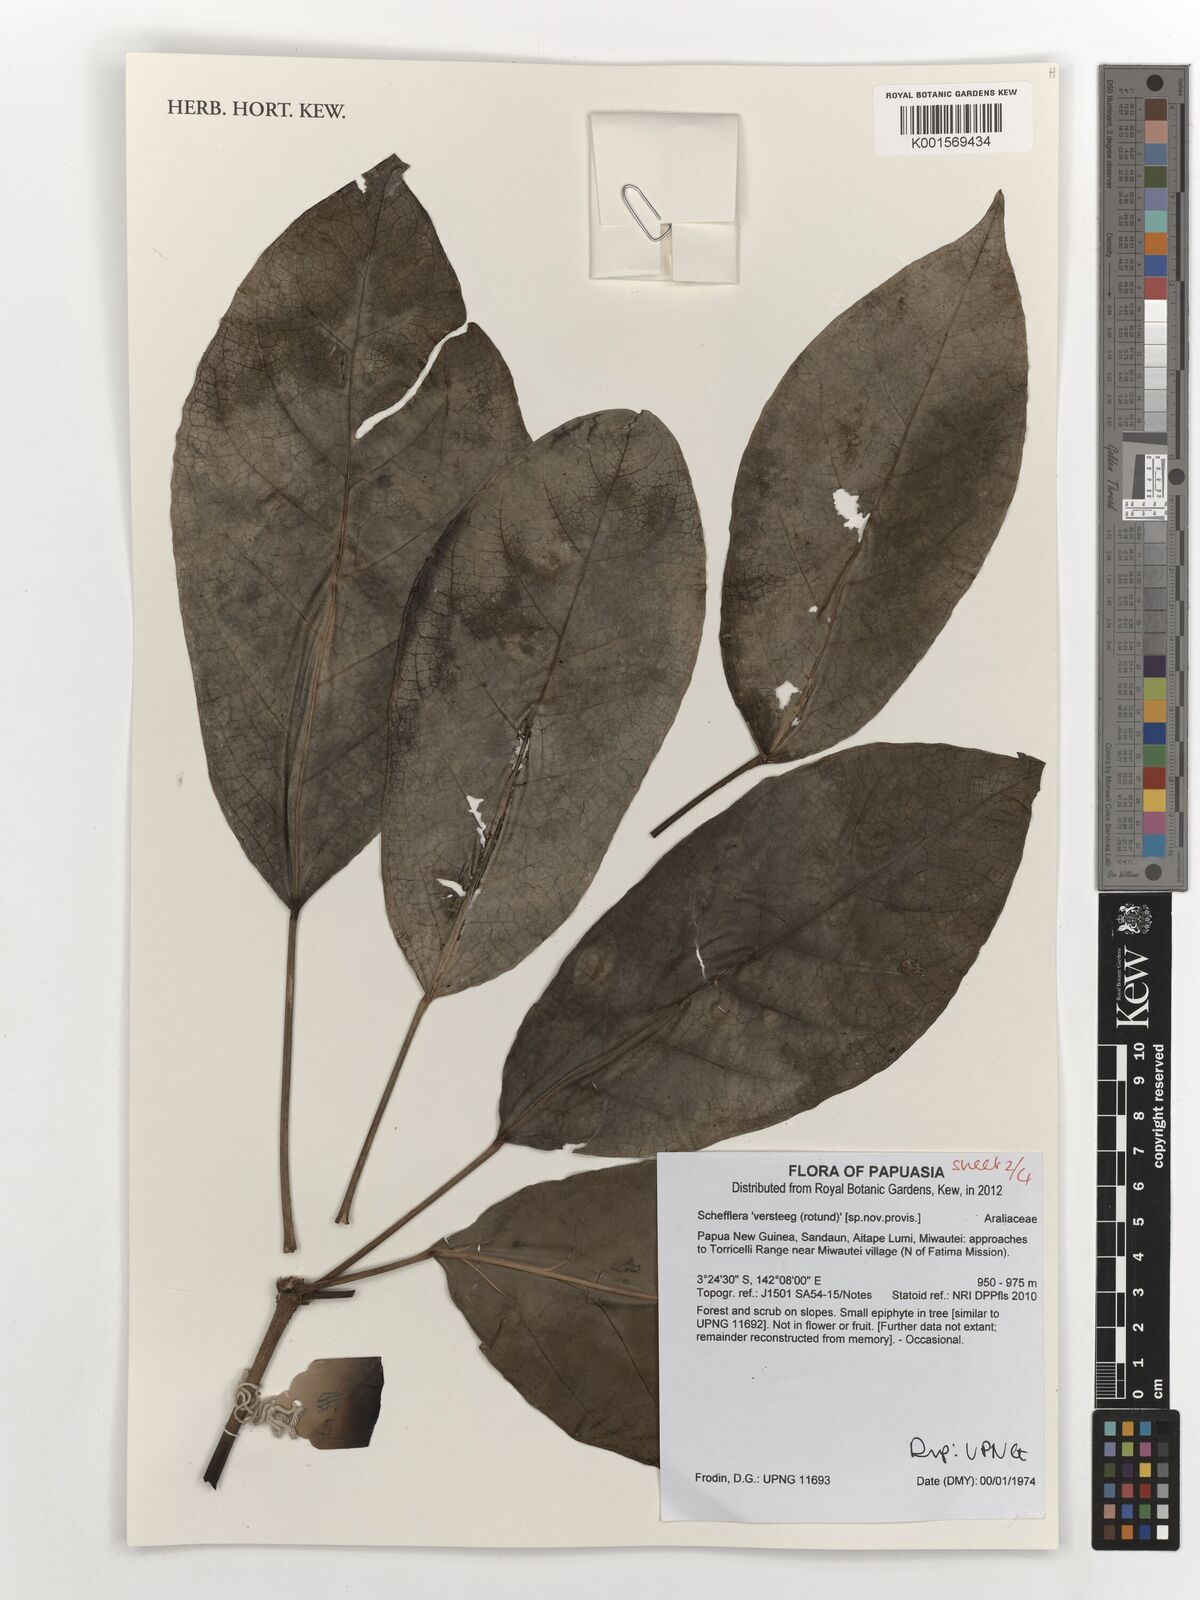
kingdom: Plantae
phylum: Tracheophyta
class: Magnoliopsida
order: Apiales
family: Araliaceae
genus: Schefflera
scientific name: Schefflera
